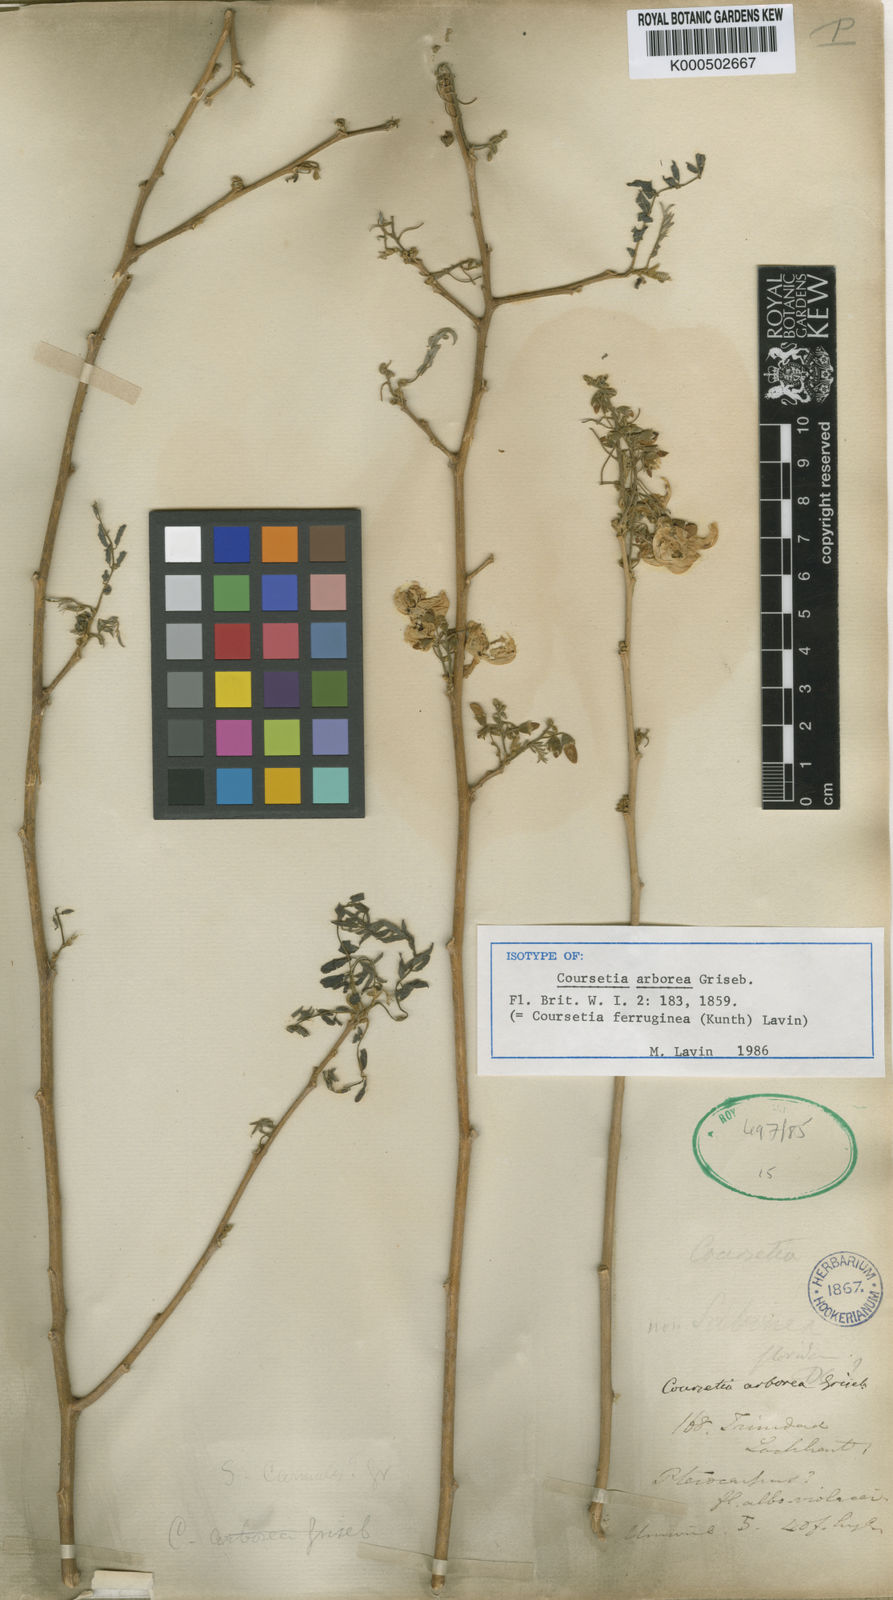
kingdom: Plantae
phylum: Tracheophyta
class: Magnoliopsida
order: Fabales
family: Fabaceae
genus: Coursetia
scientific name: Coursetia ferruginea
